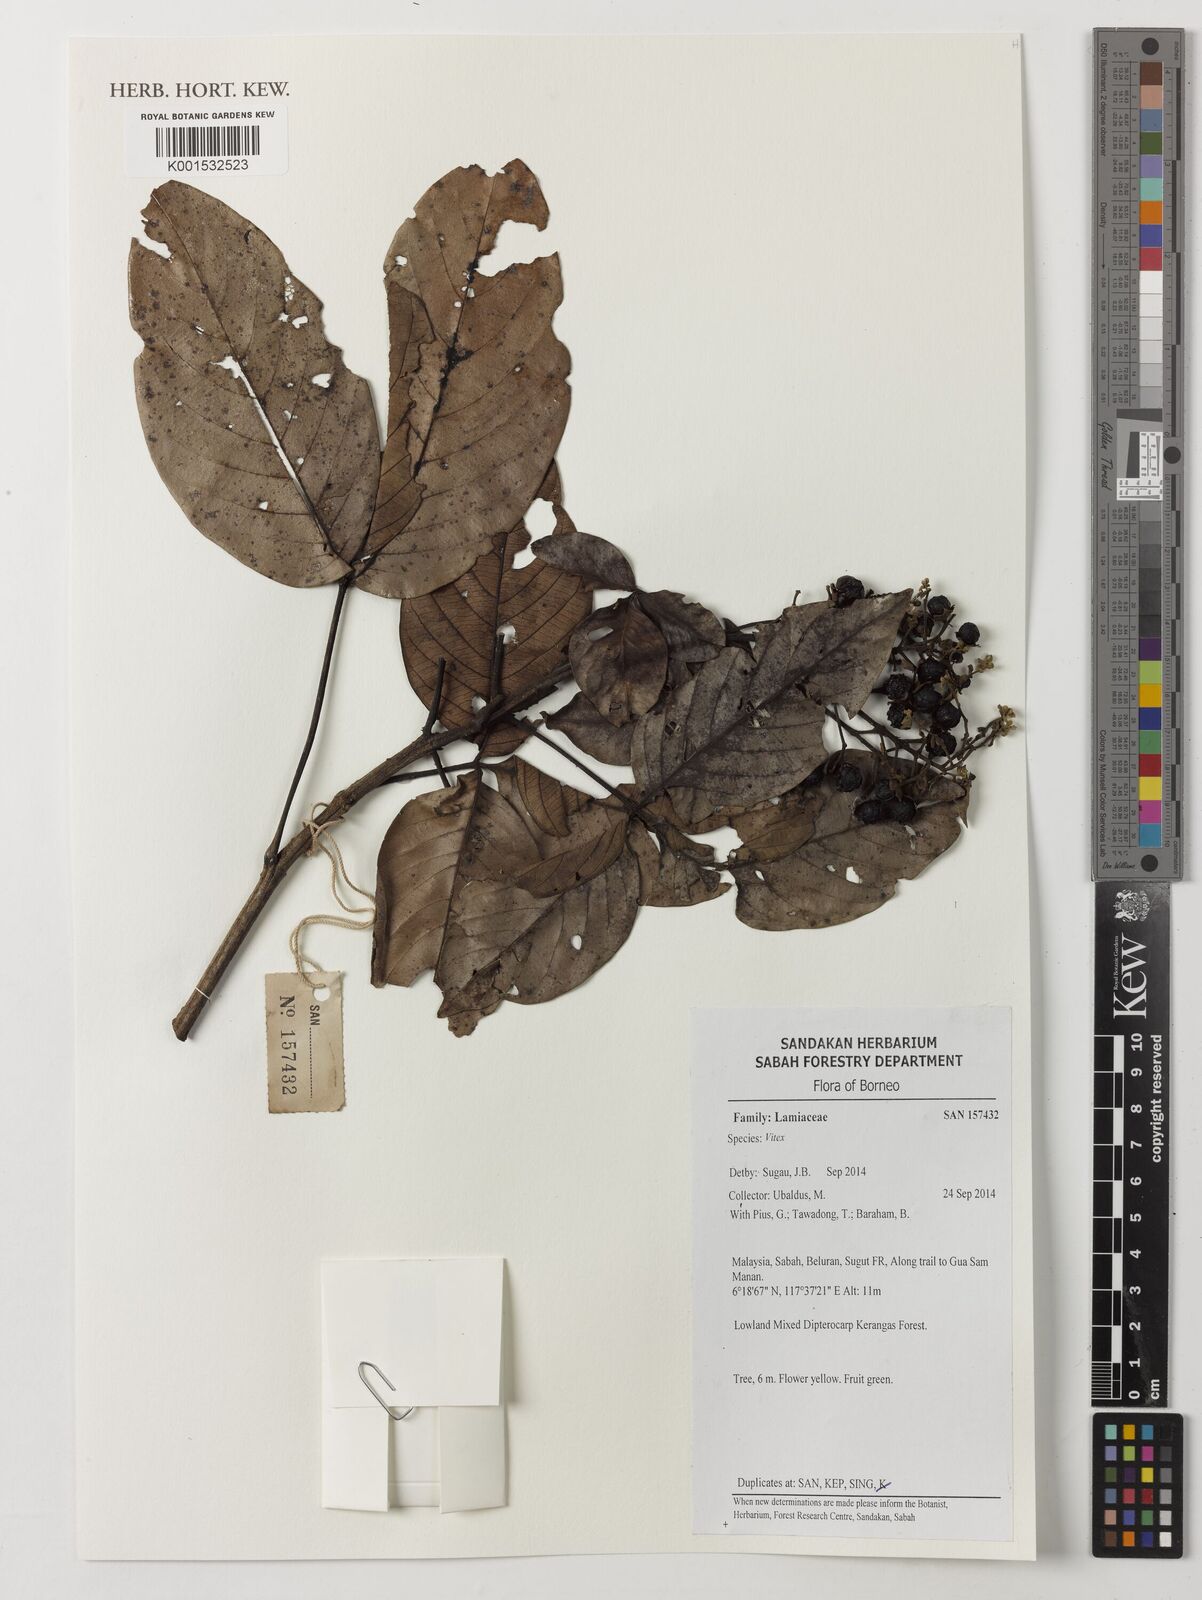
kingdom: Plantae
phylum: Tracheophyta
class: Magnoliopsida
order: Lamiales
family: Lamiaceae
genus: Vitex
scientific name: Vitex
